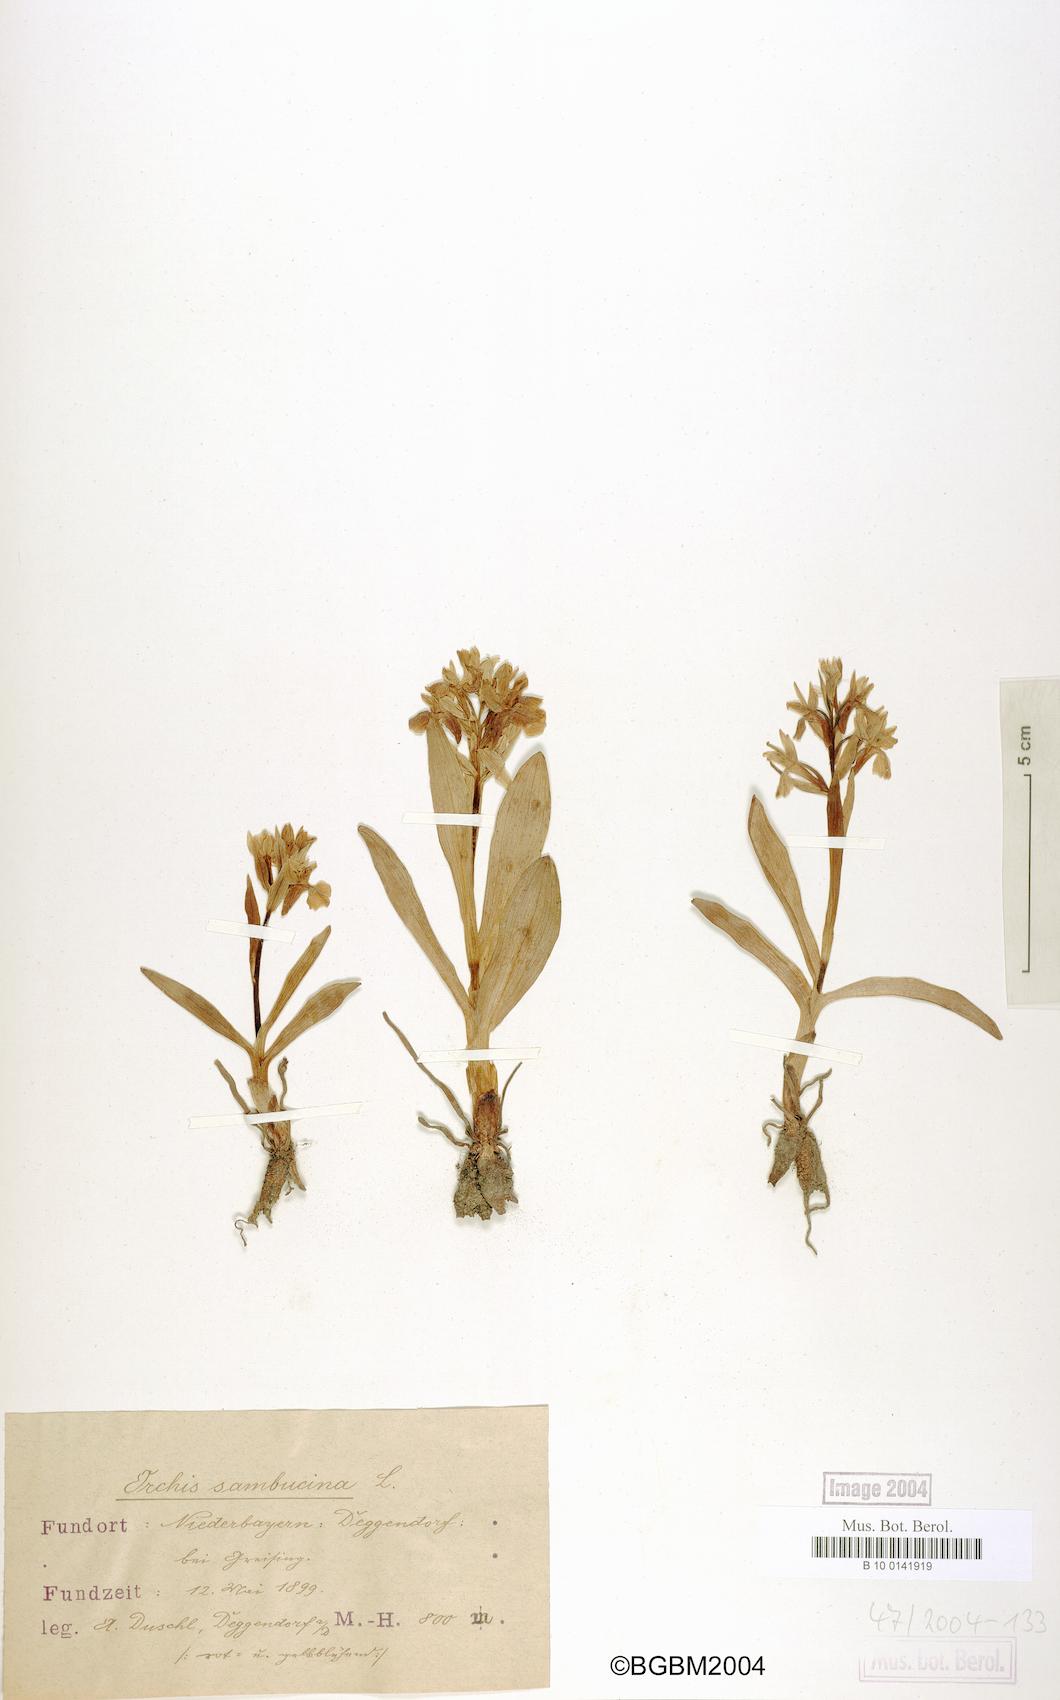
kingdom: Plantae
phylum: Tracheophyta
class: Liliopsida
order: Asparagales
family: Orchidaceae
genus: Dactylorhiza
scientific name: Dactylorhiza sambucina
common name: Elder-flowered orchid
